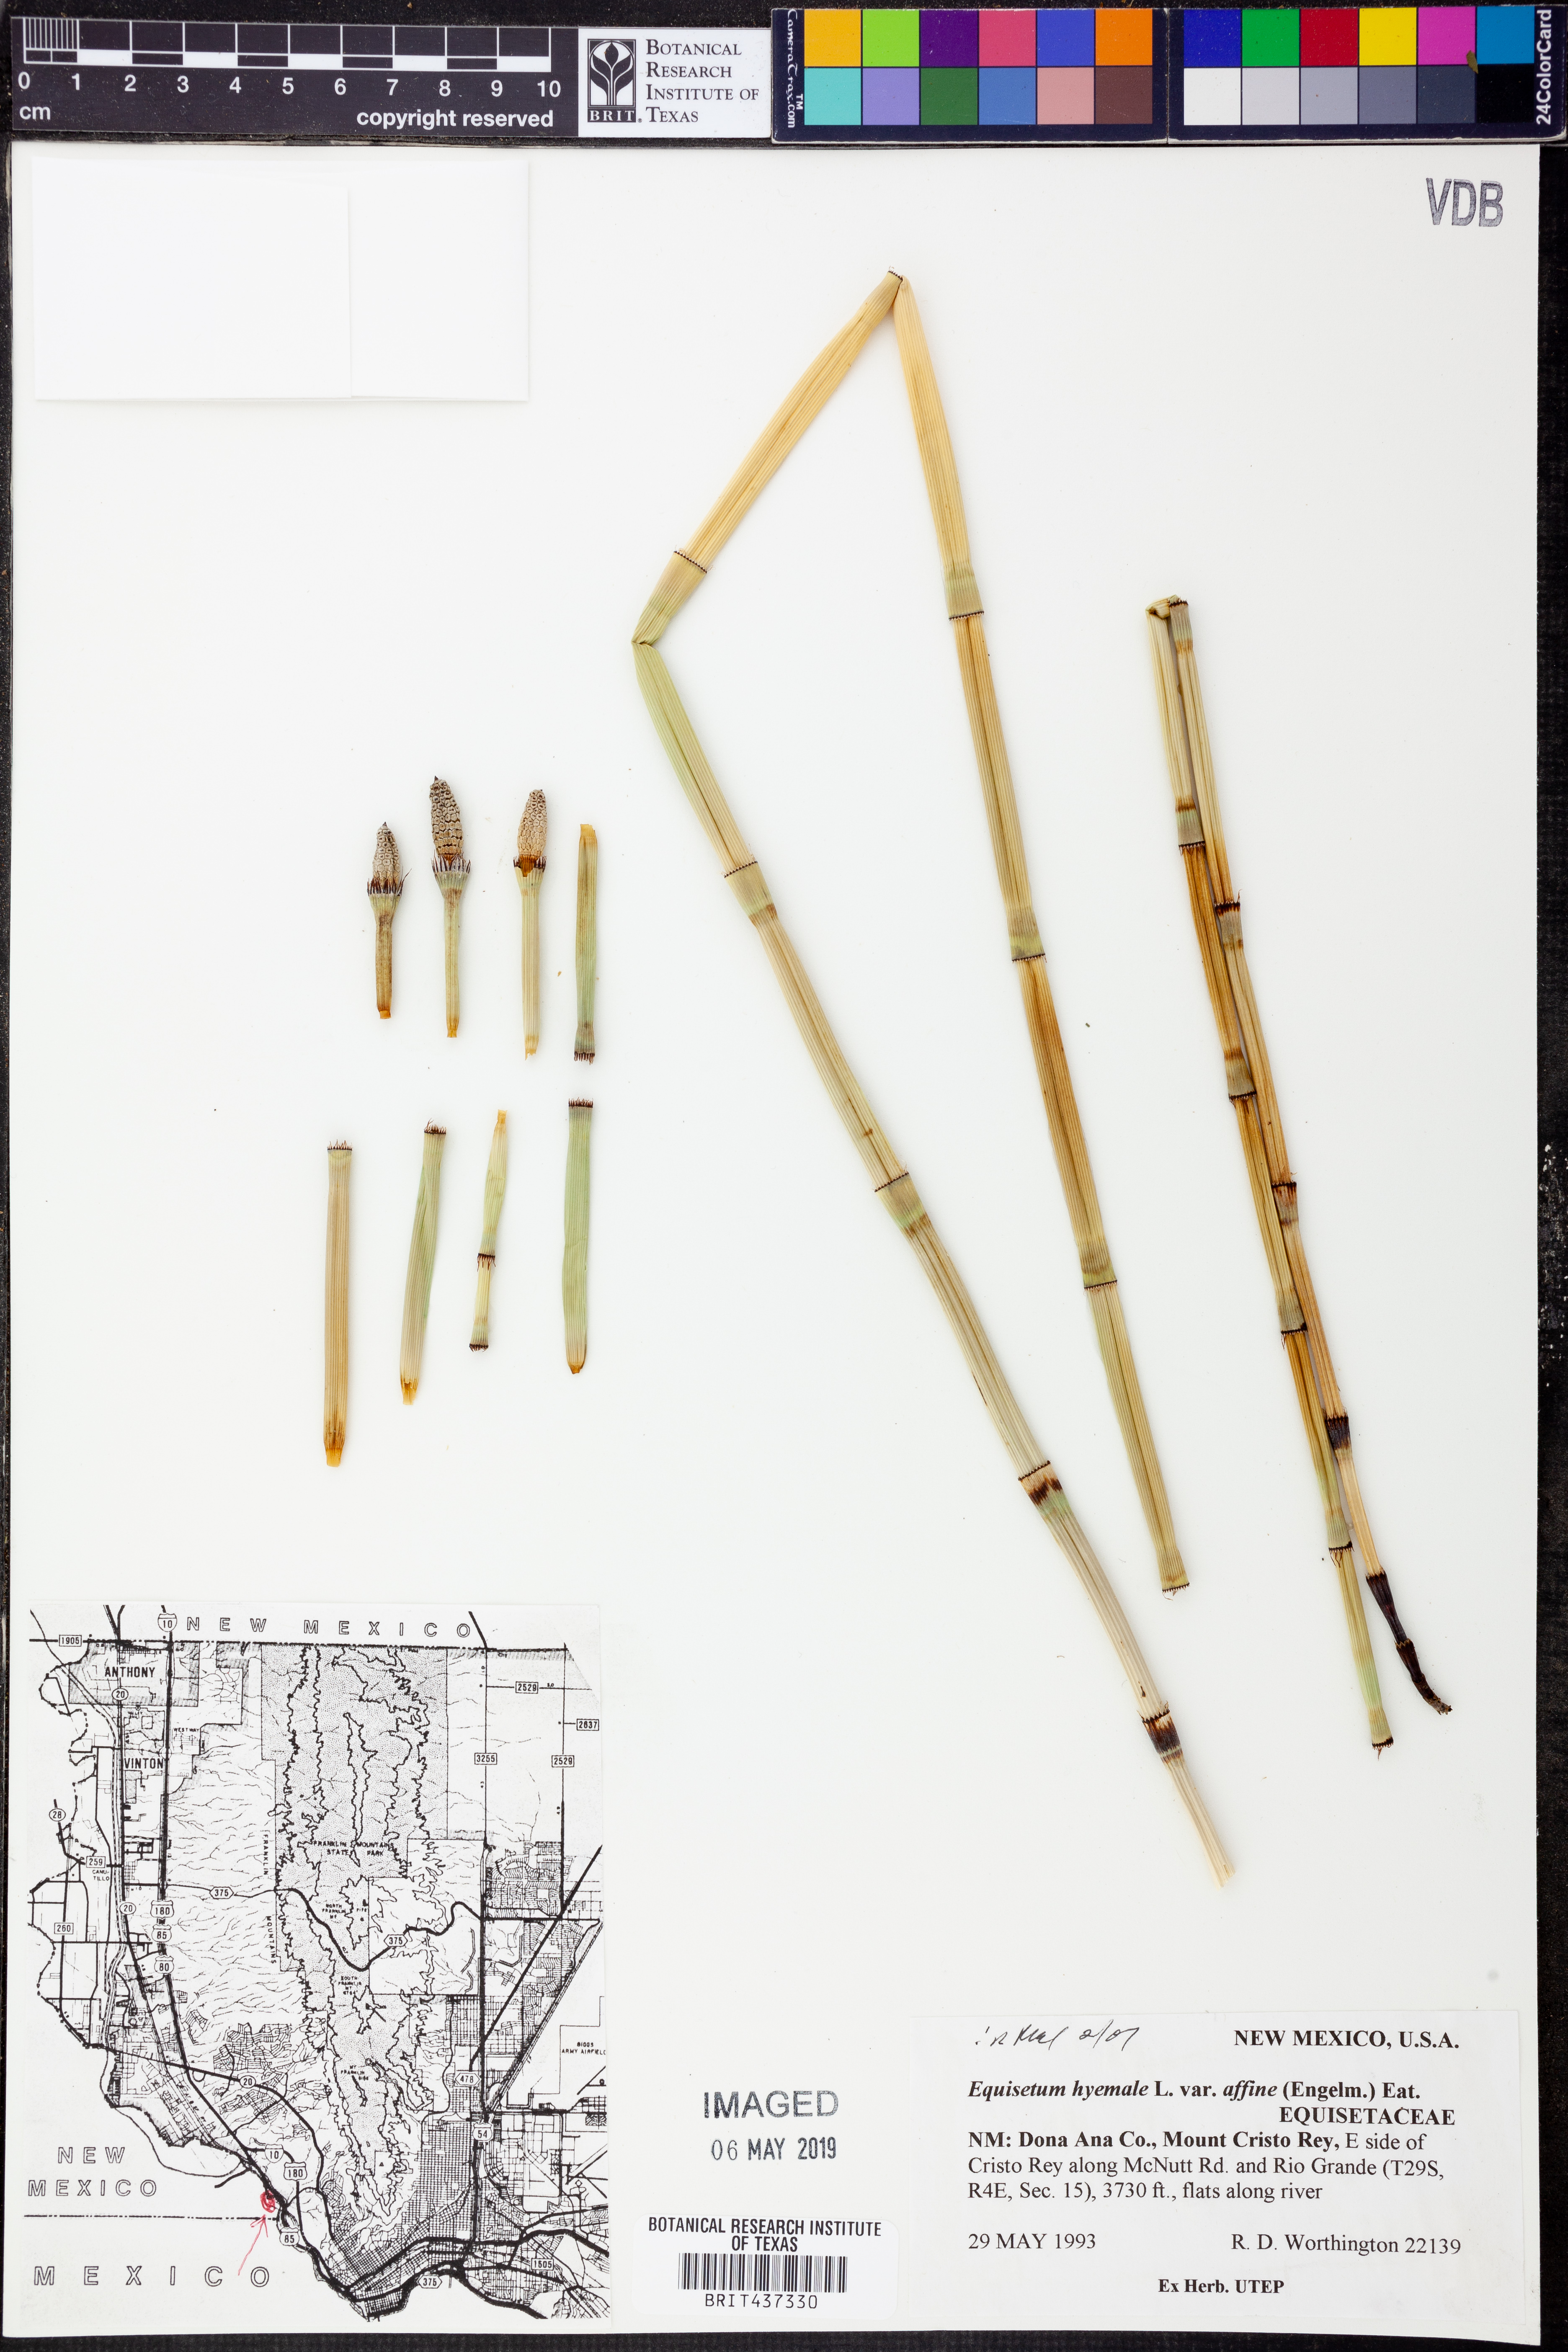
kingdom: Plantae
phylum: Tracheophyta
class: Polypodiopsida
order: Equisetales
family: Equisetaceae
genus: Equisetum
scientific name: Equisetum praealtum
